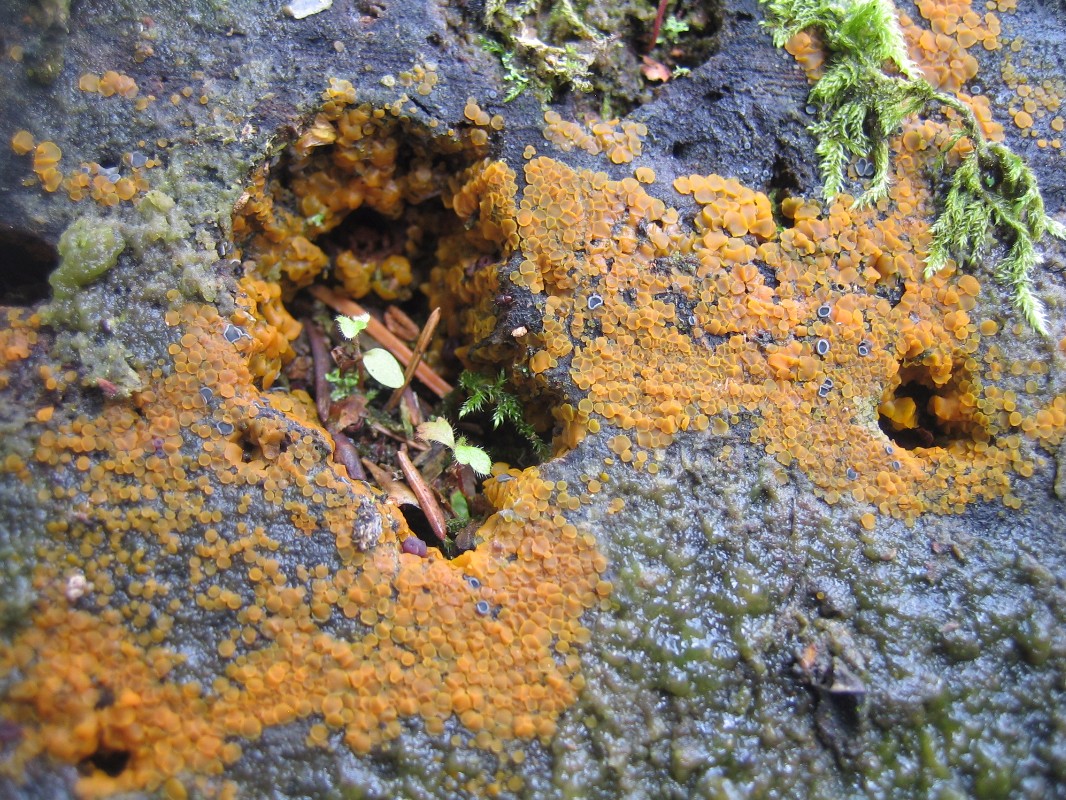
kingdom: Fungi
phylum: Ascomycota
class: Orbiliomycetes
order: Orbiliales
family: Orbiliaceae
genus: Orbilia
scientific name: Orbilia xanthostigma
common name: krumsporet voksskive
